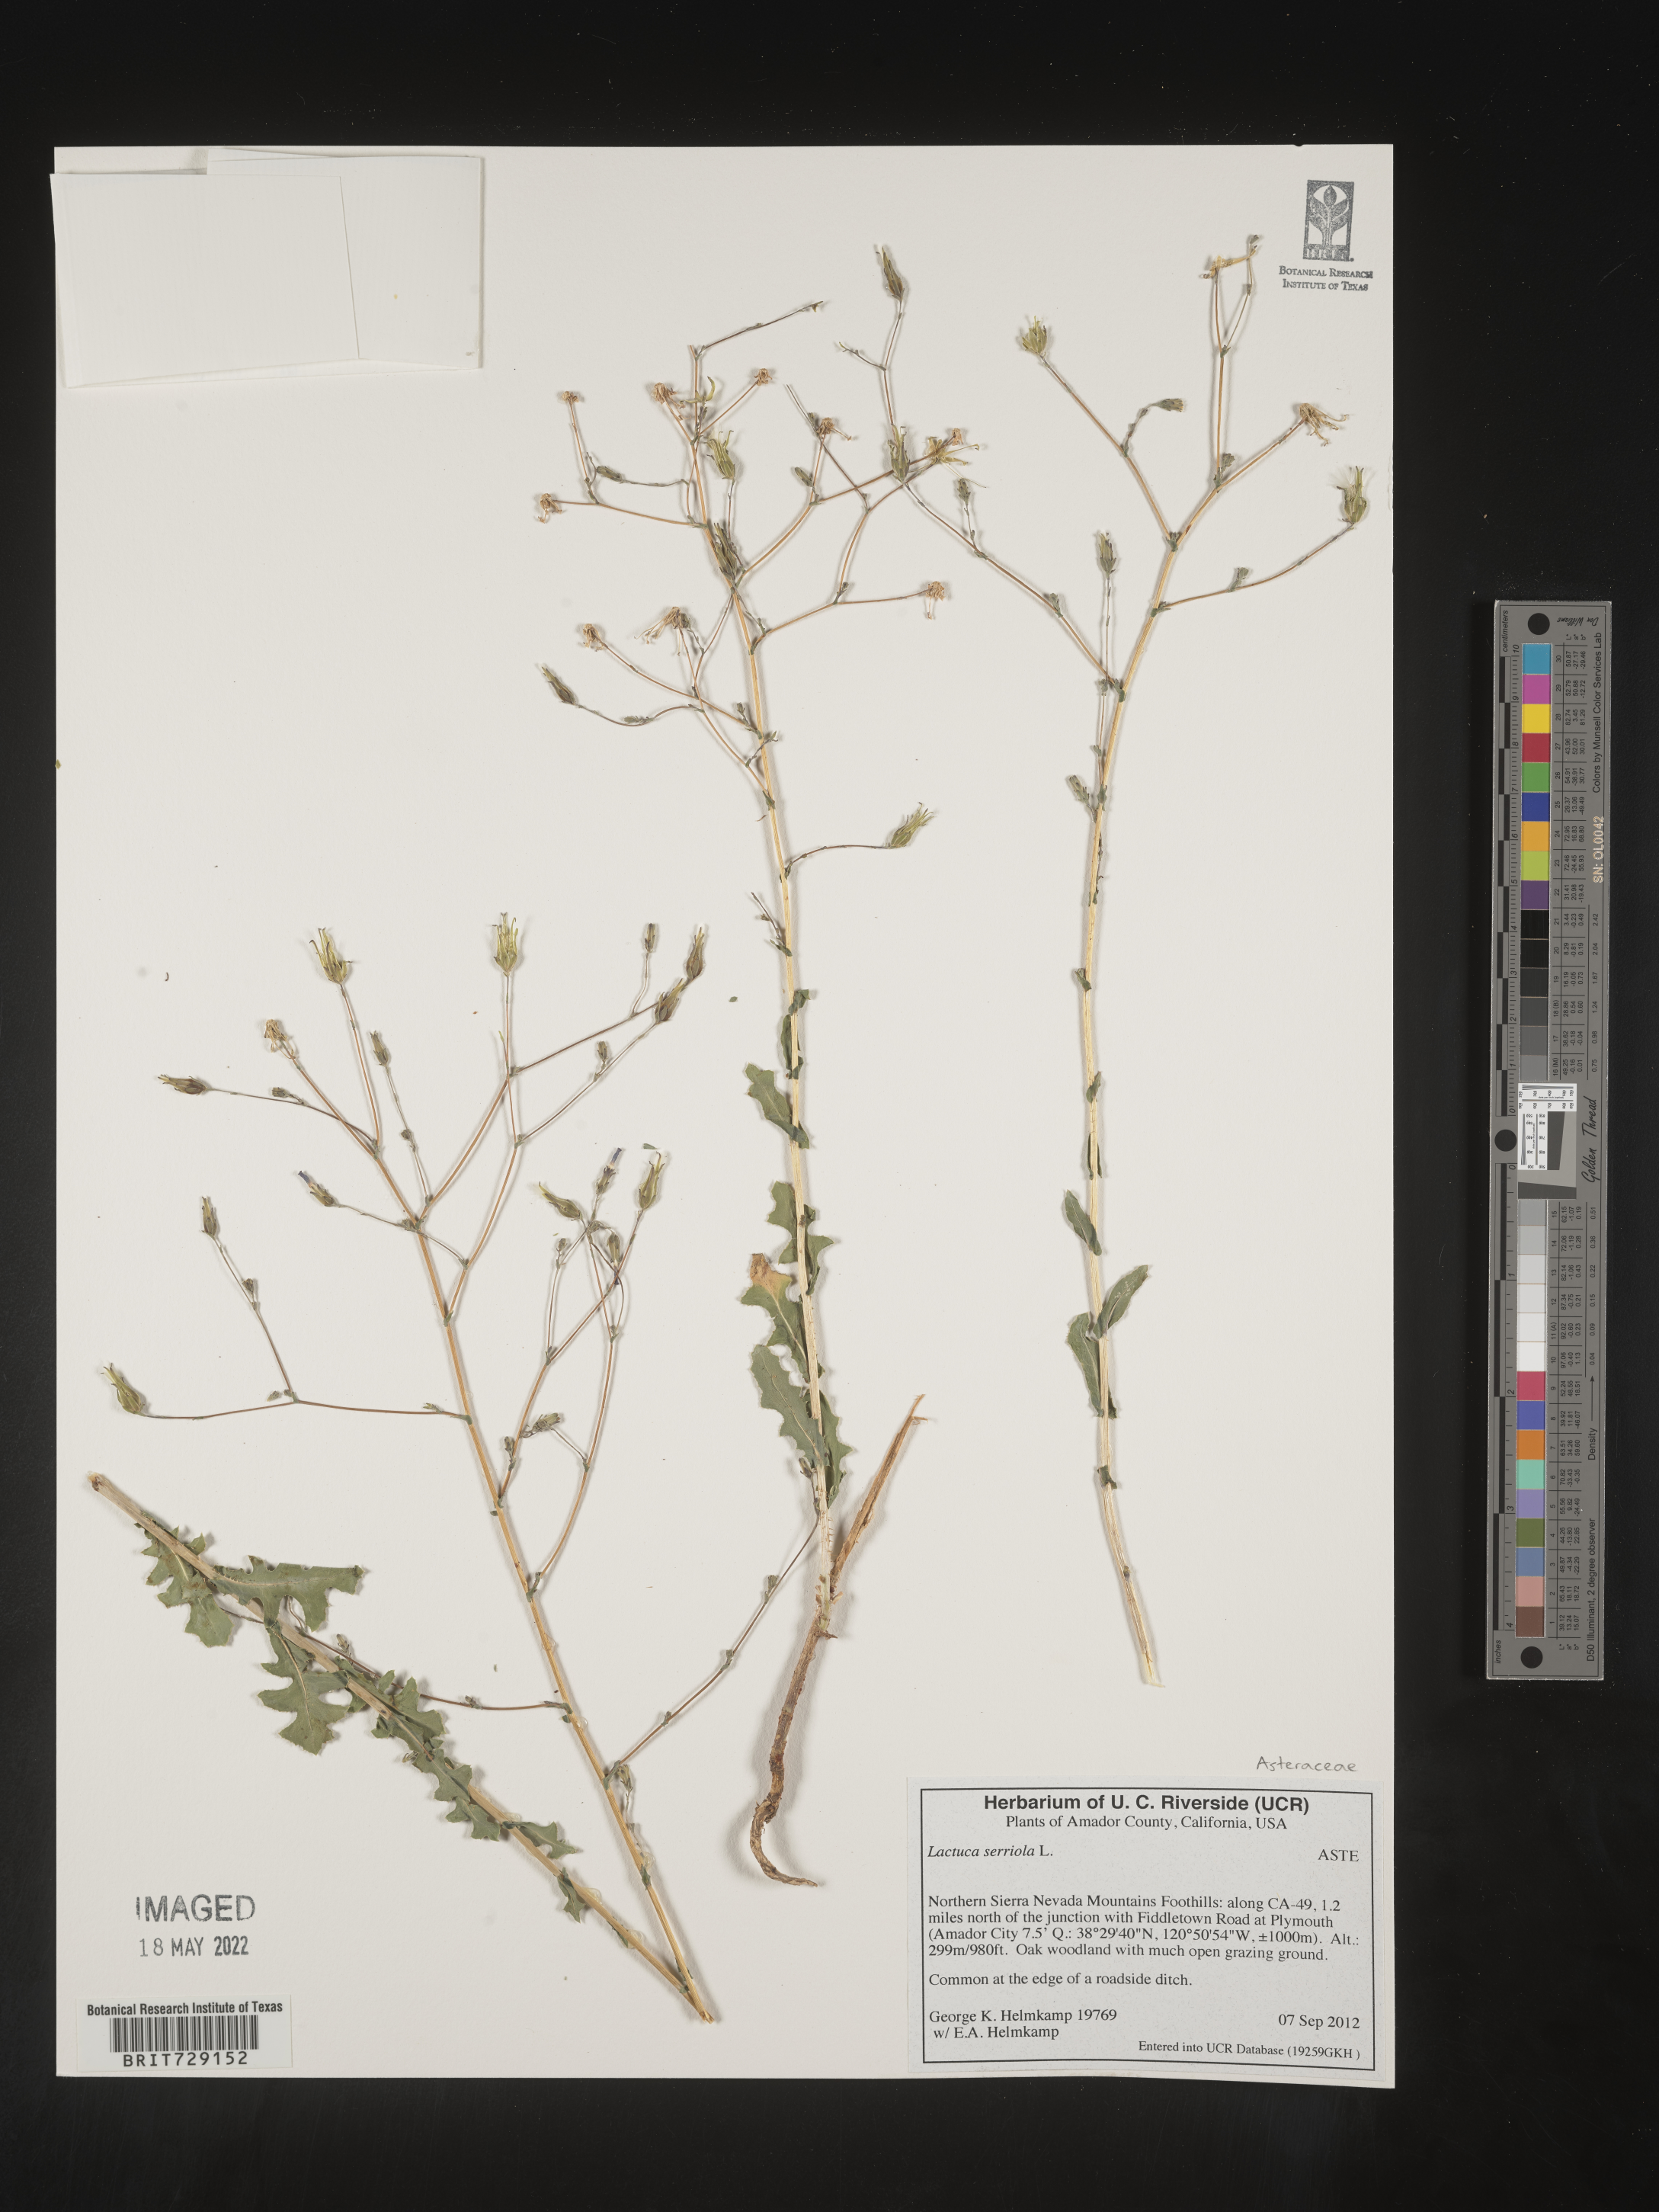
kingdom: Plantae
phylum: Tracheophyta
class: Magnoliopsida
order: Asterales
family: Asteraceae
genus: Lactuca
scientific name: Lactuca serriola
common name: Prickly lettuce
